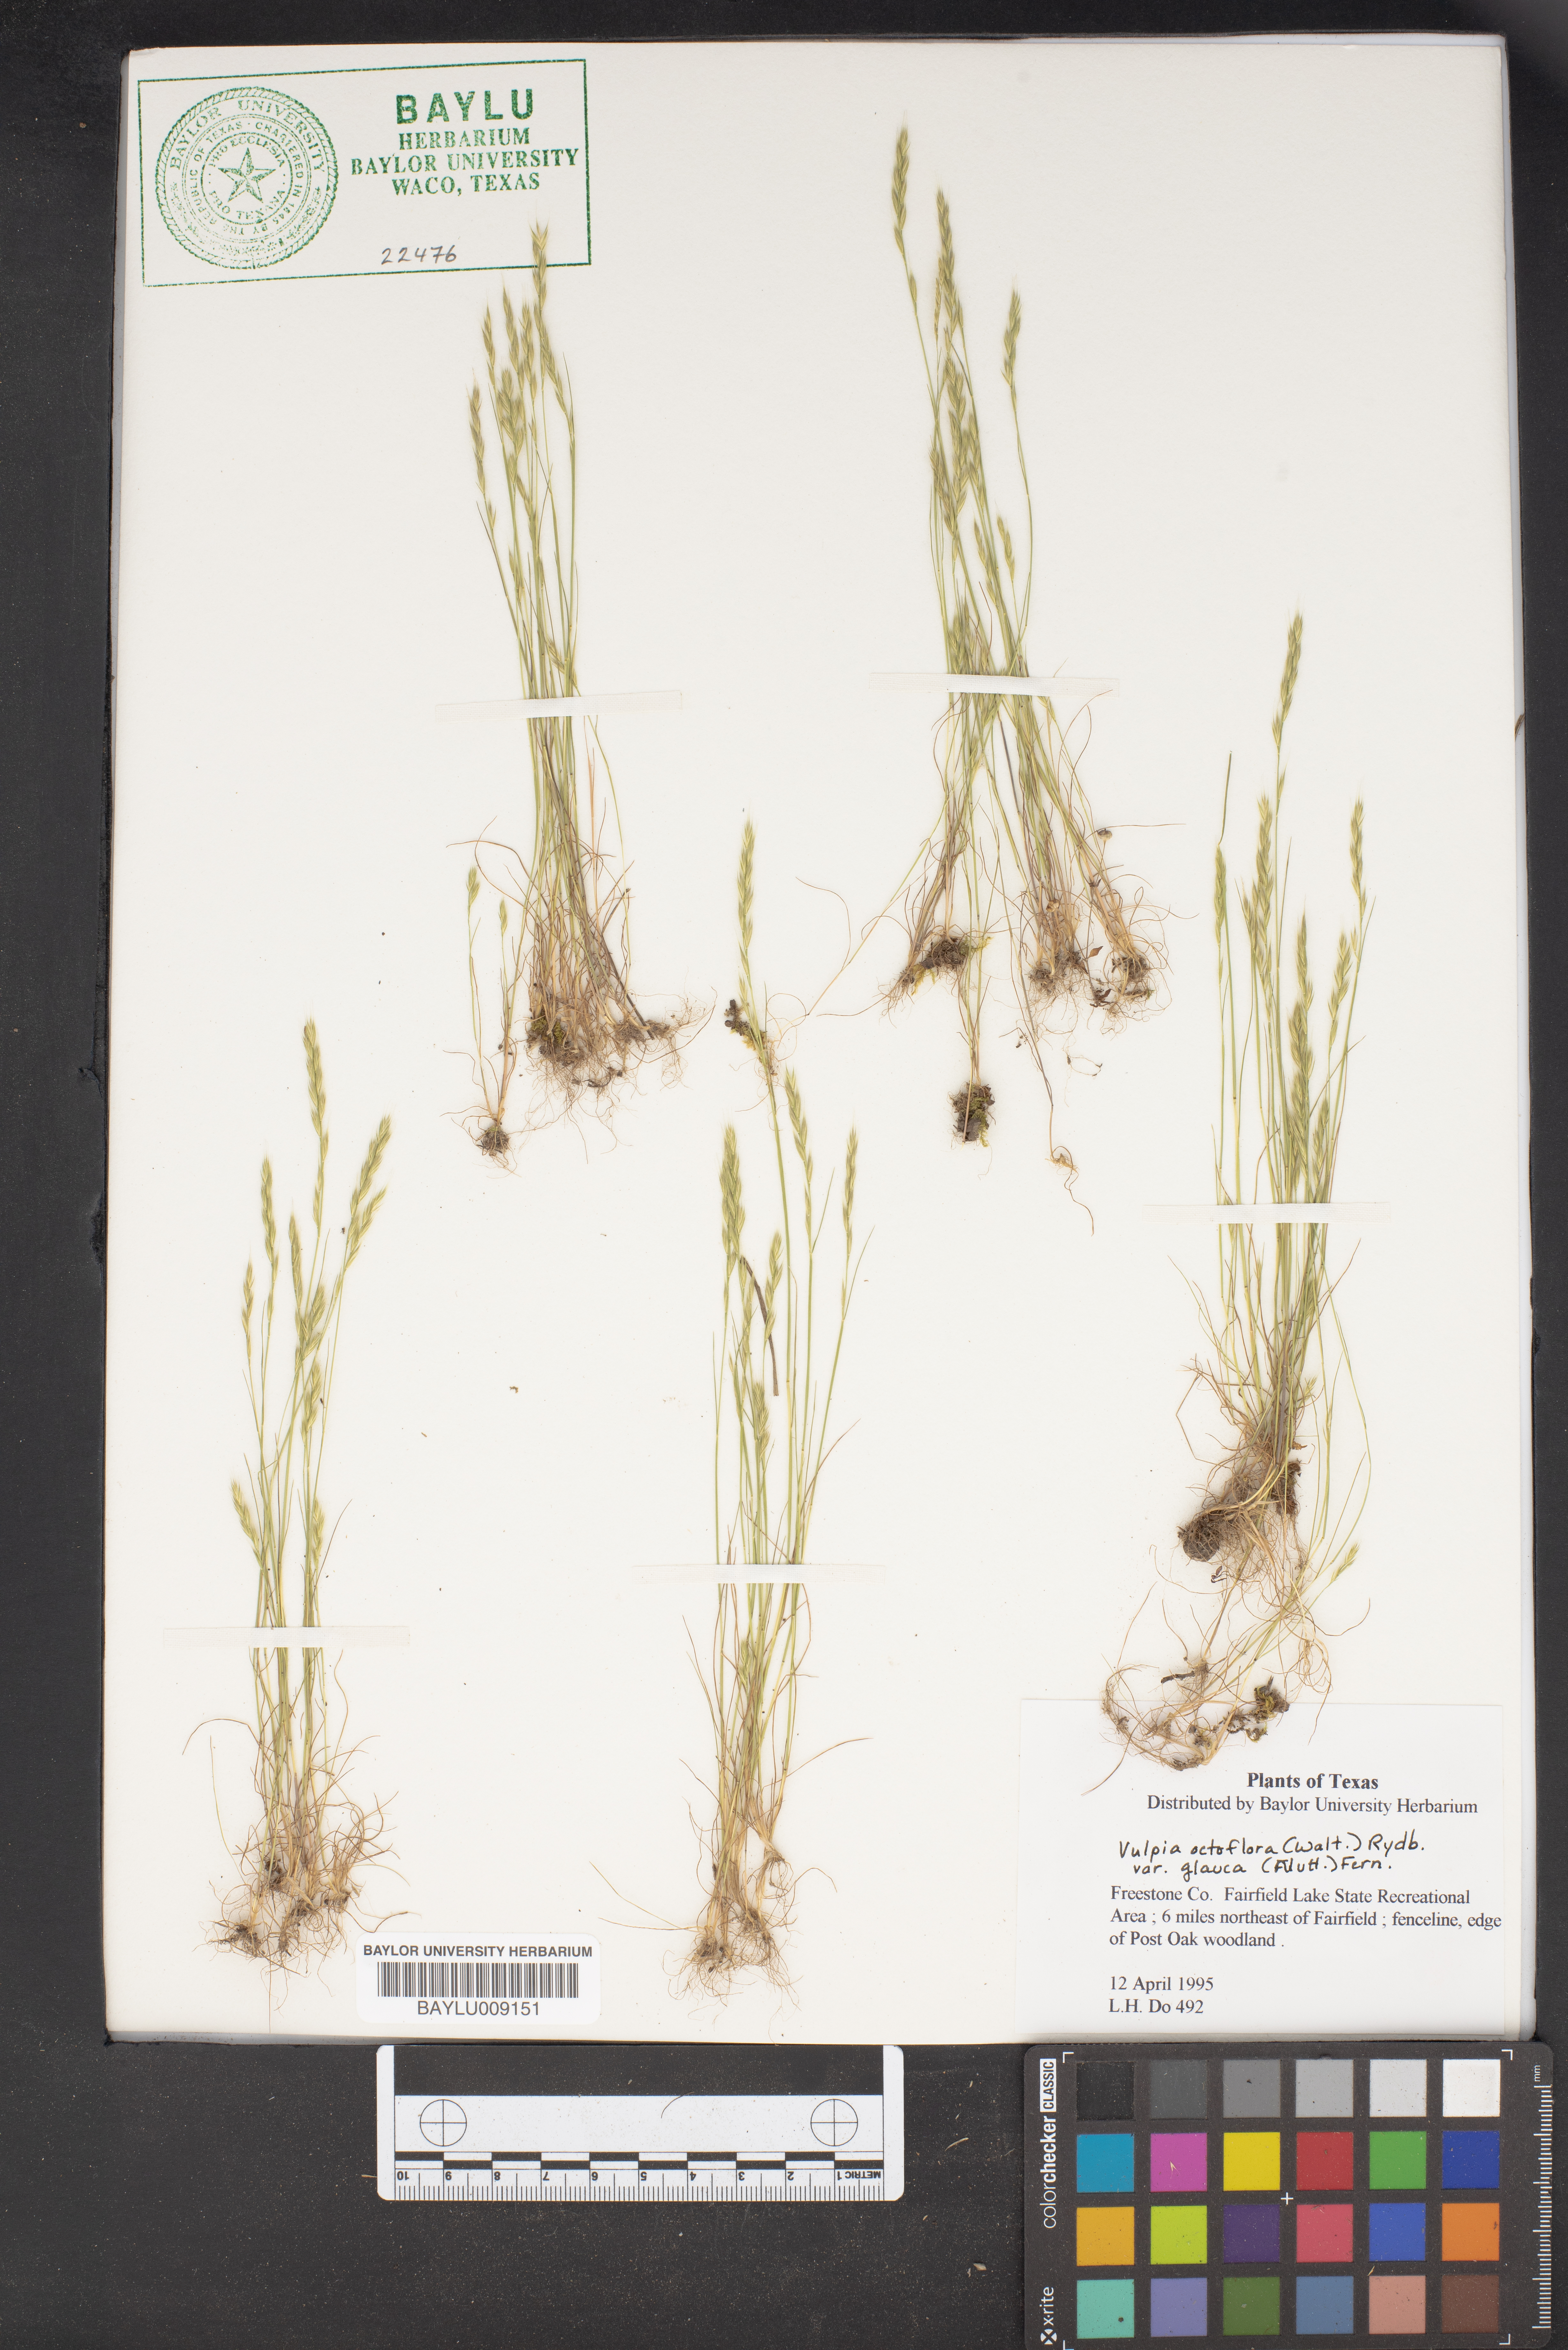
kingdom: Plantae
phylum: Tracheophyta
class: Liliopsida
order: Poales
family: Poaceae
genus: Festuca
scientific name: Festuca octoflora
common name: Sixweeks grass
